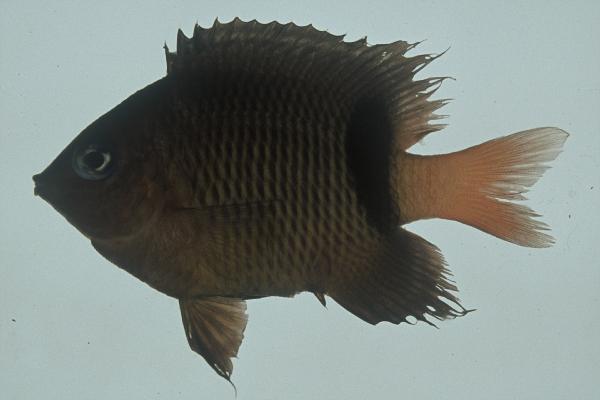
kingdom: Animalia
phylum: Chordata
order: Perciformes
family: Pomacentridae
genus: Plectroglyphidodon
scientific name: Plectroglyphidodon dickii
